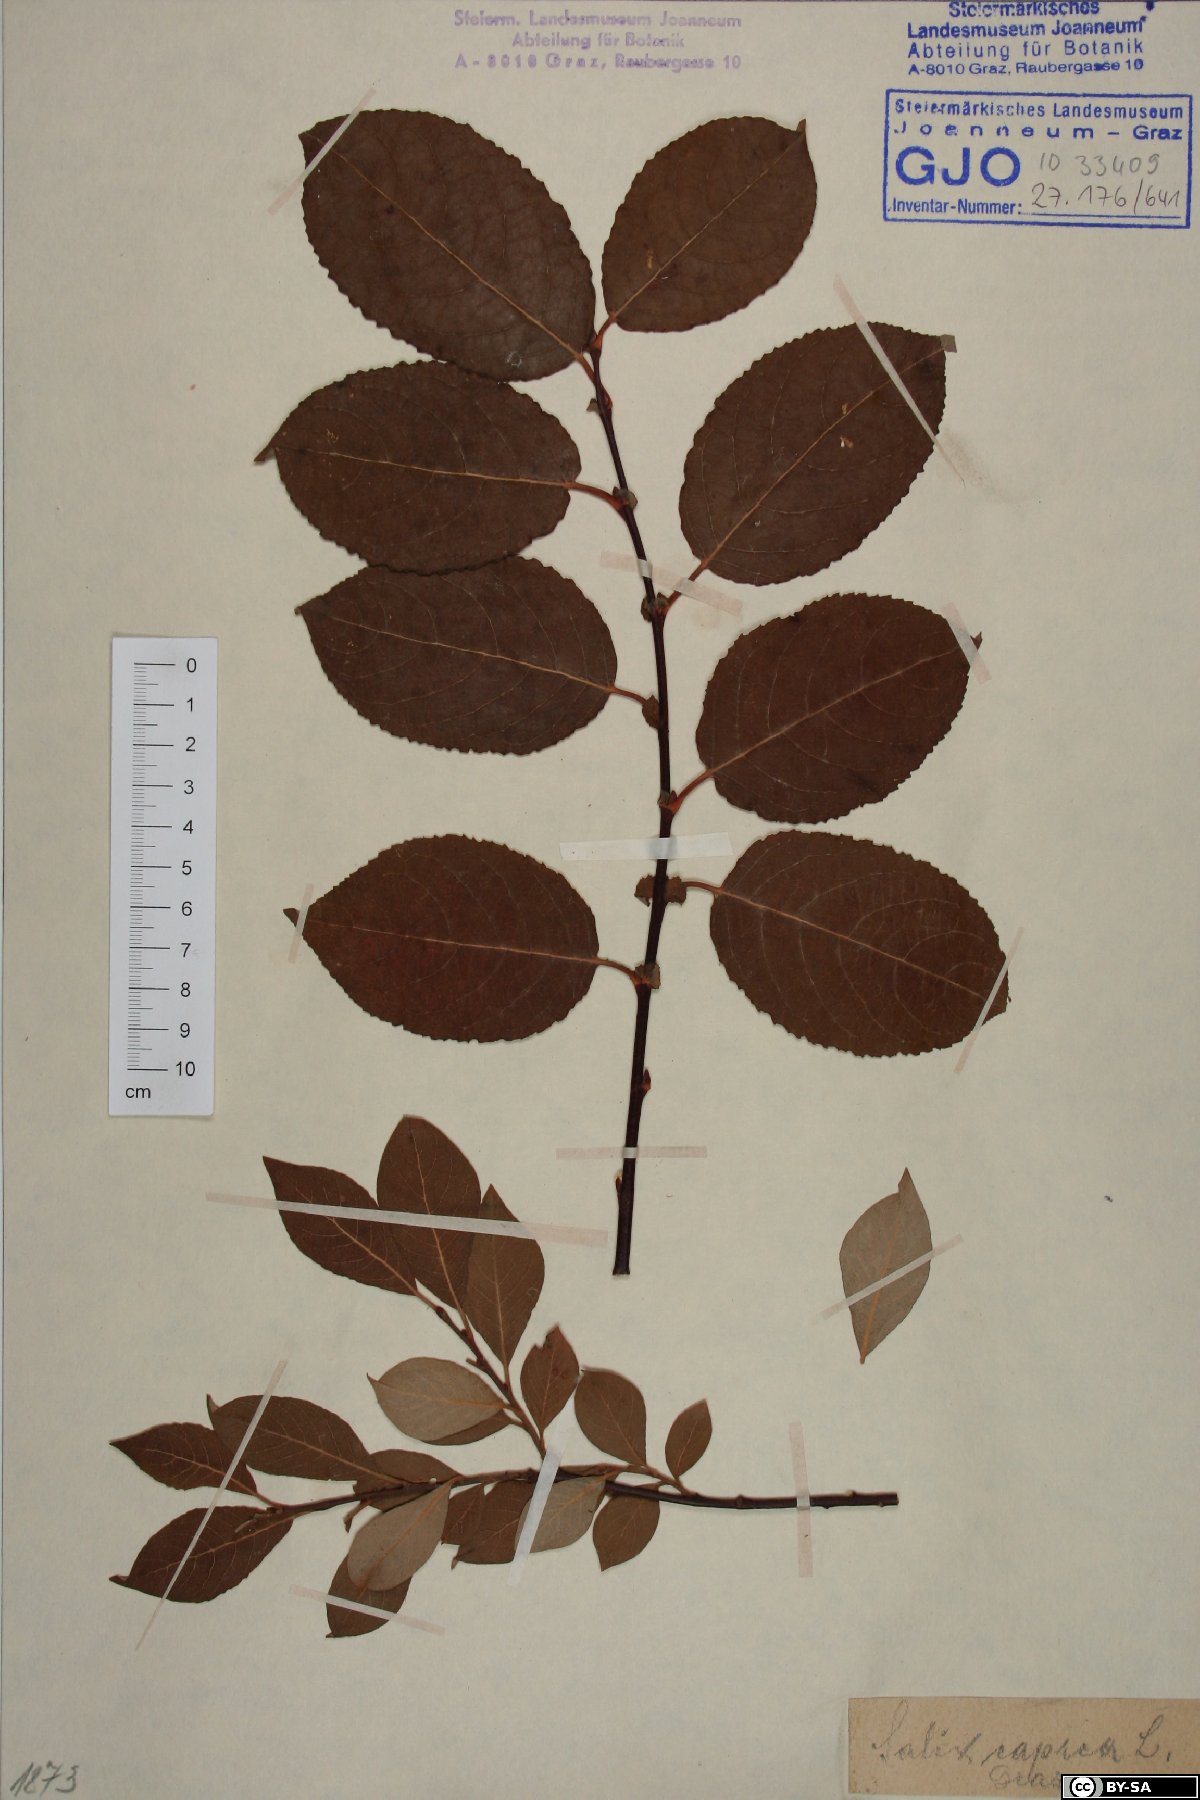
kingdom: Plantae
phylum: Tracheophyta
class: Magnoliopsida
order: Malpighiales
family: Salicaceae
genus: Salix
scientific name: Salix caprea
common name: Goat willow
